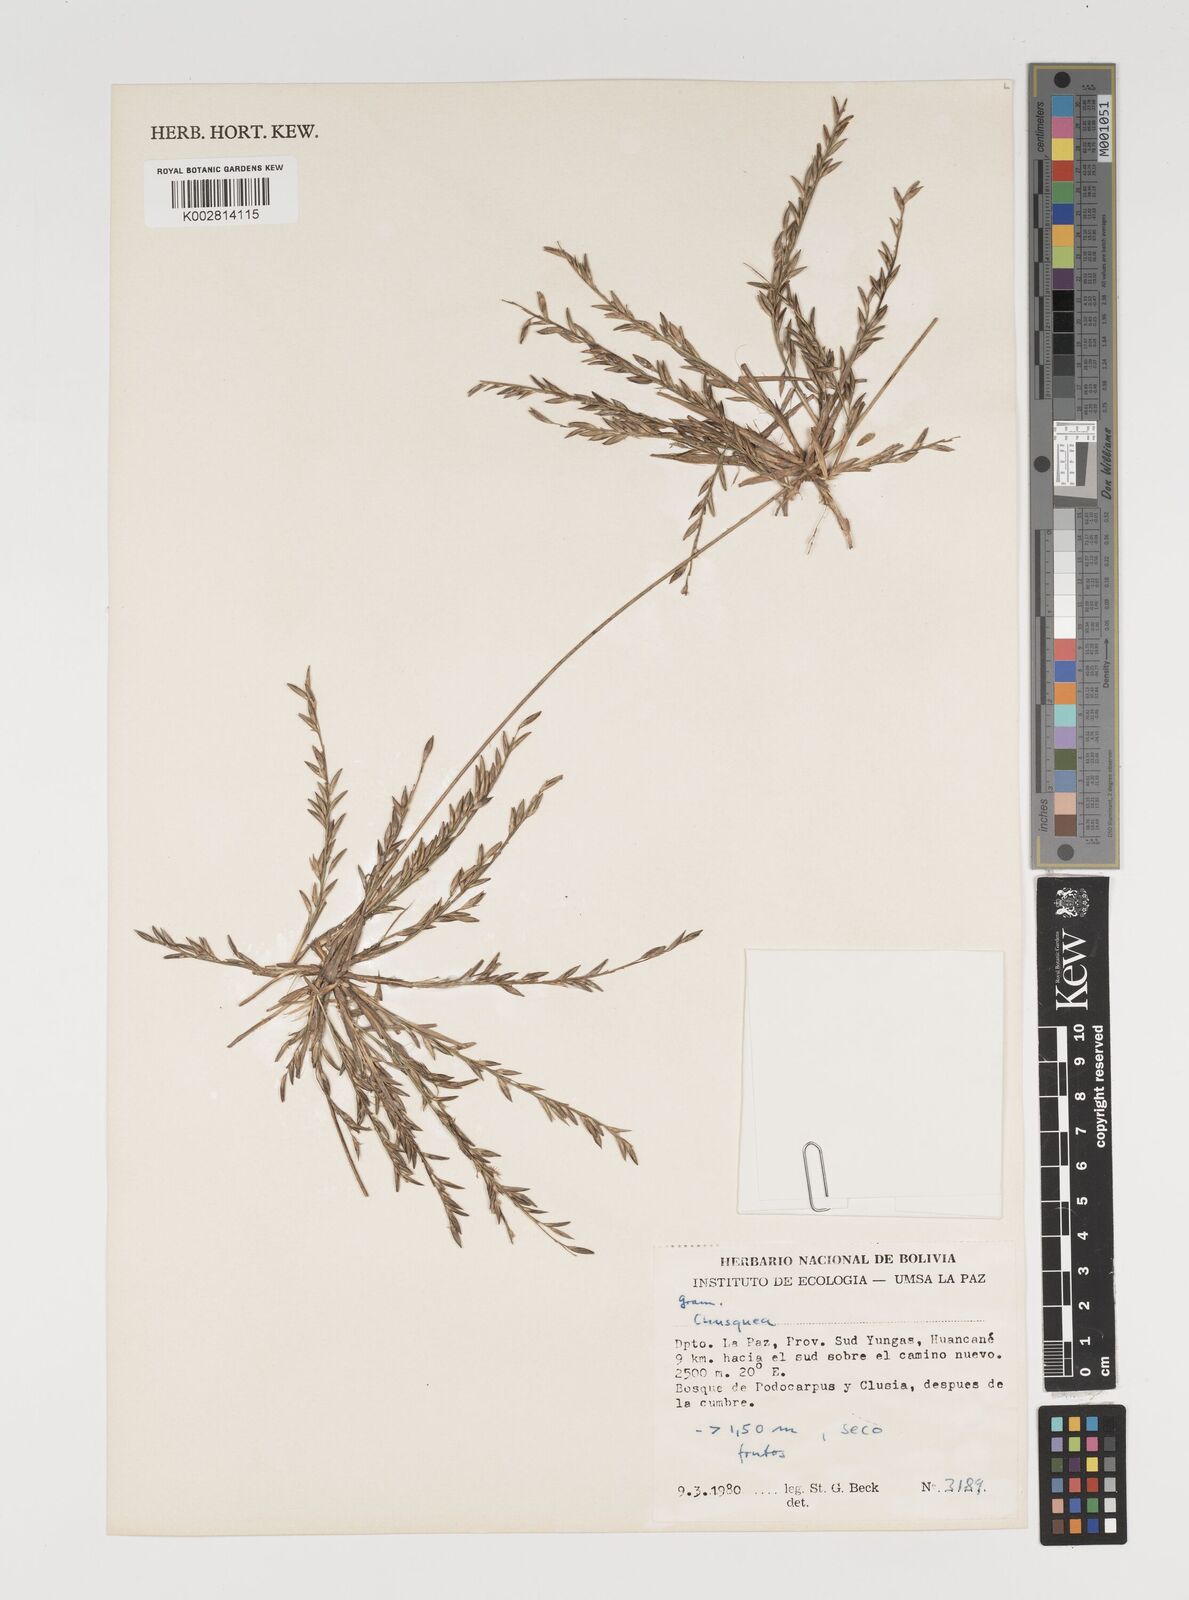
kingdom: Plantae
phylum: Tracheophyta
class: Liliopsida
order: Poales
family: Poaceae
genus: Chusquea
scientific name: Chusquea
